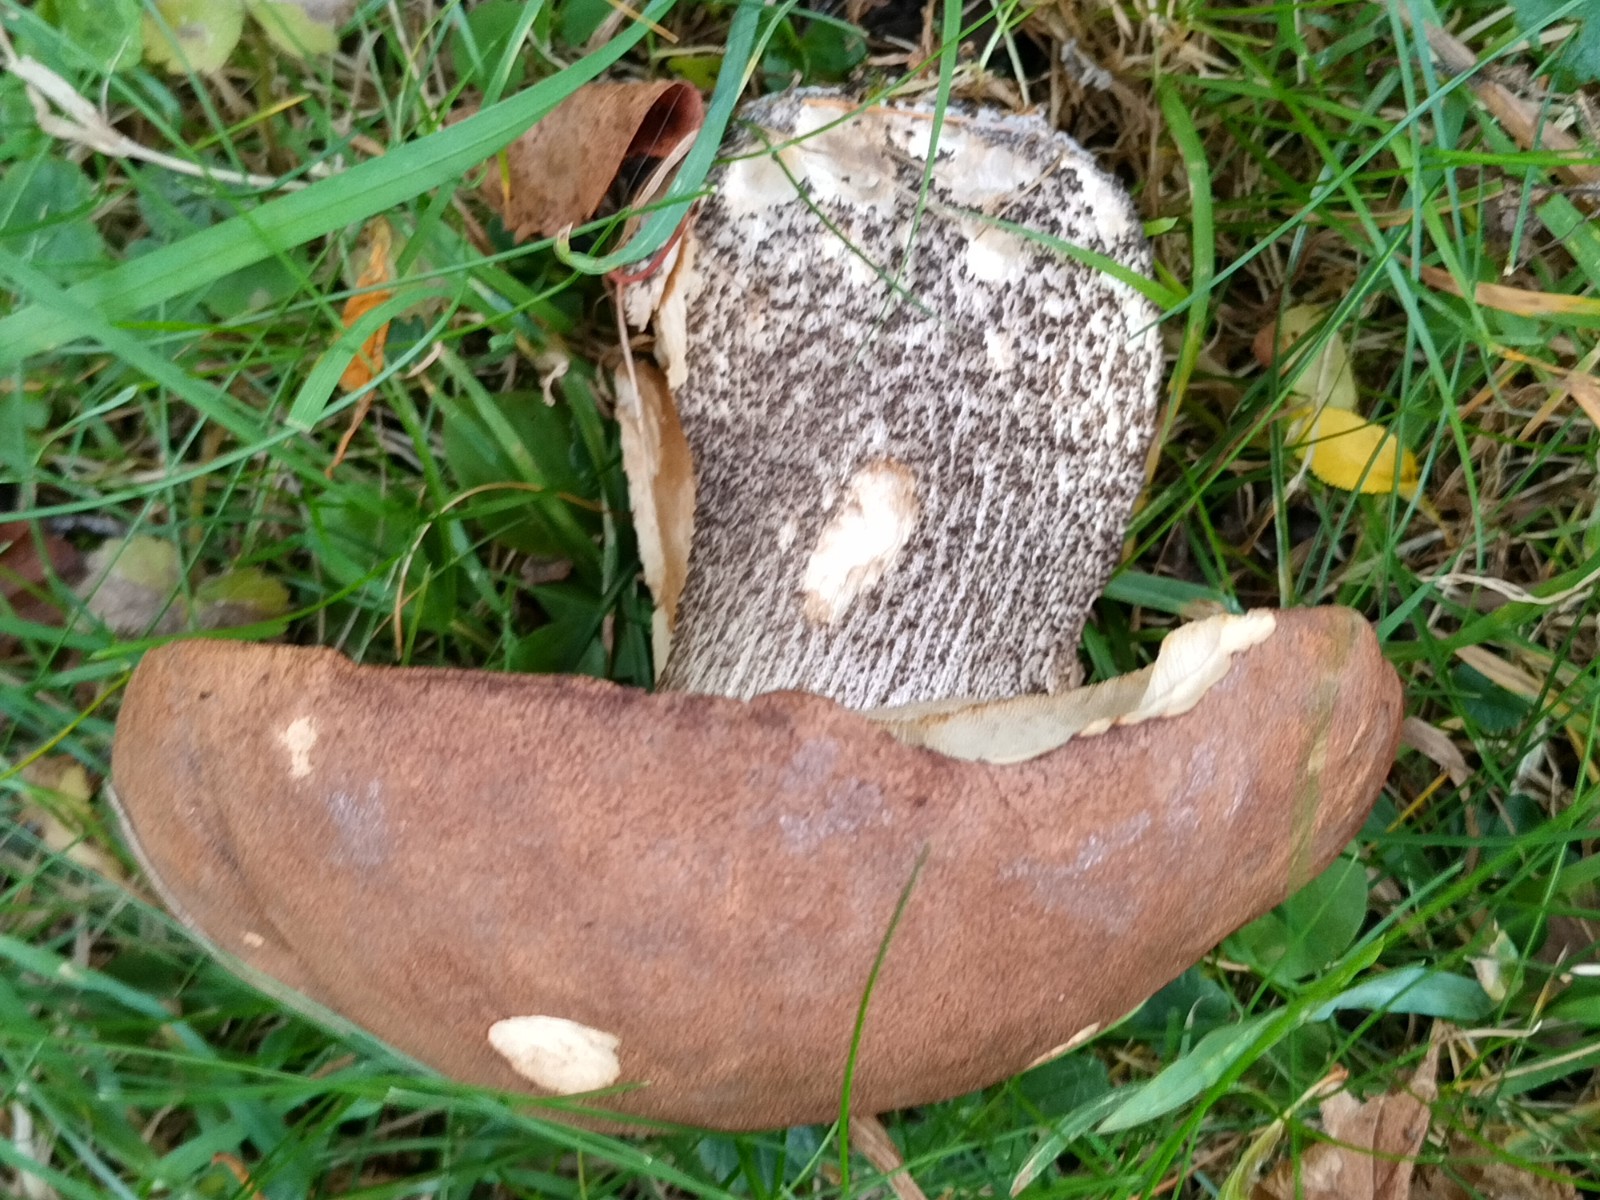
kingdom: Fungi
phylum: Basidiomycota
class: Agaricomycetes
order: Boletales
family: Boletaceae
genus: Leccinum
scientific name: Leccinum scabrum
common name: brun skælrørhat
